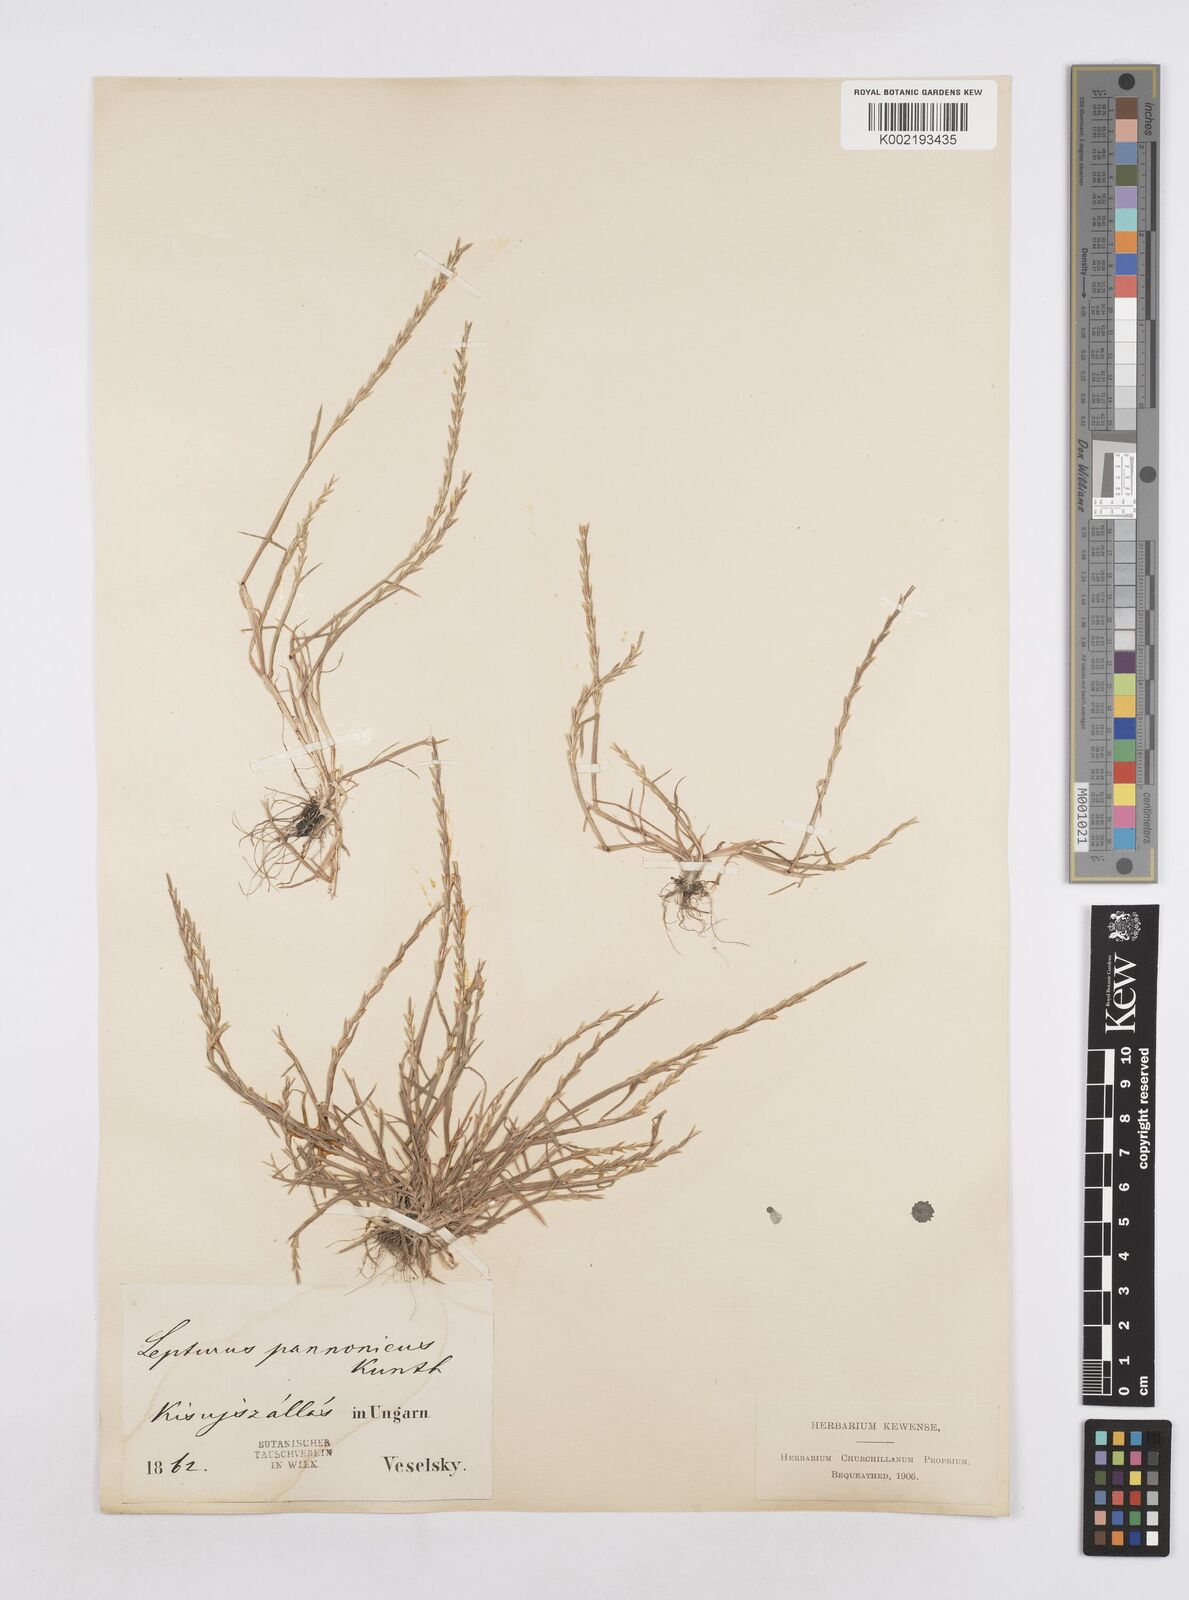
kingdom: Plantae
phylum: Tracheophyta
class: Liliopsida
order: Poales
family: Poaceae
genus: Pholiurus
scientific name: Pholiurus pannonicus
